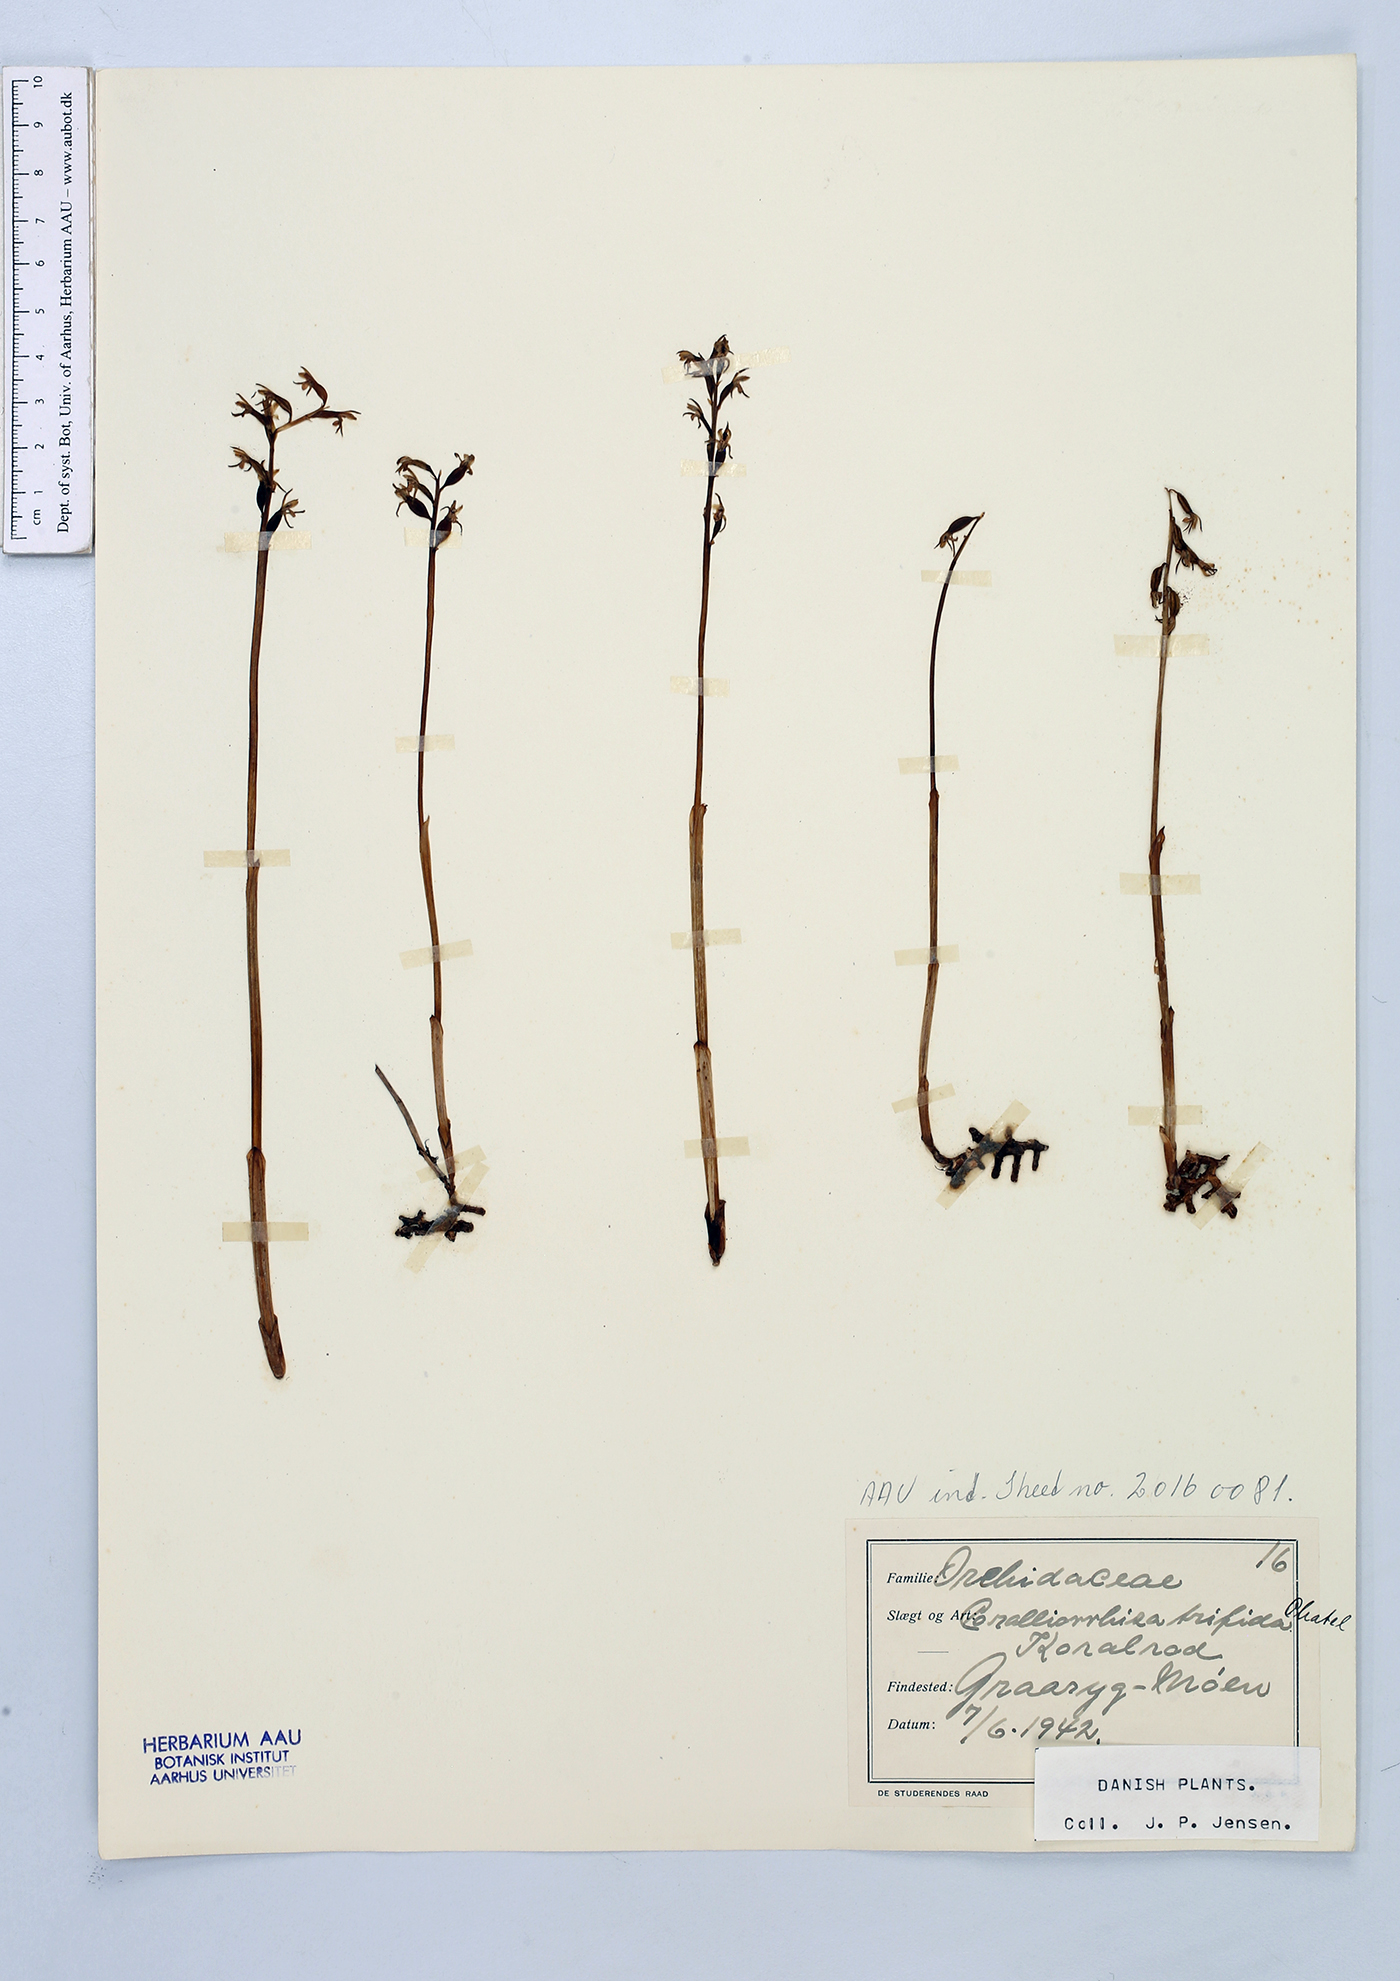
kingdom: Plantae
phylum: Tracheophyta
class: Liliopsida
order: Asparagales
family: Orchidaceae
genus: Corallorhiza
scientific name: Corallorhiza trifida
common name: Yellow coralroot
